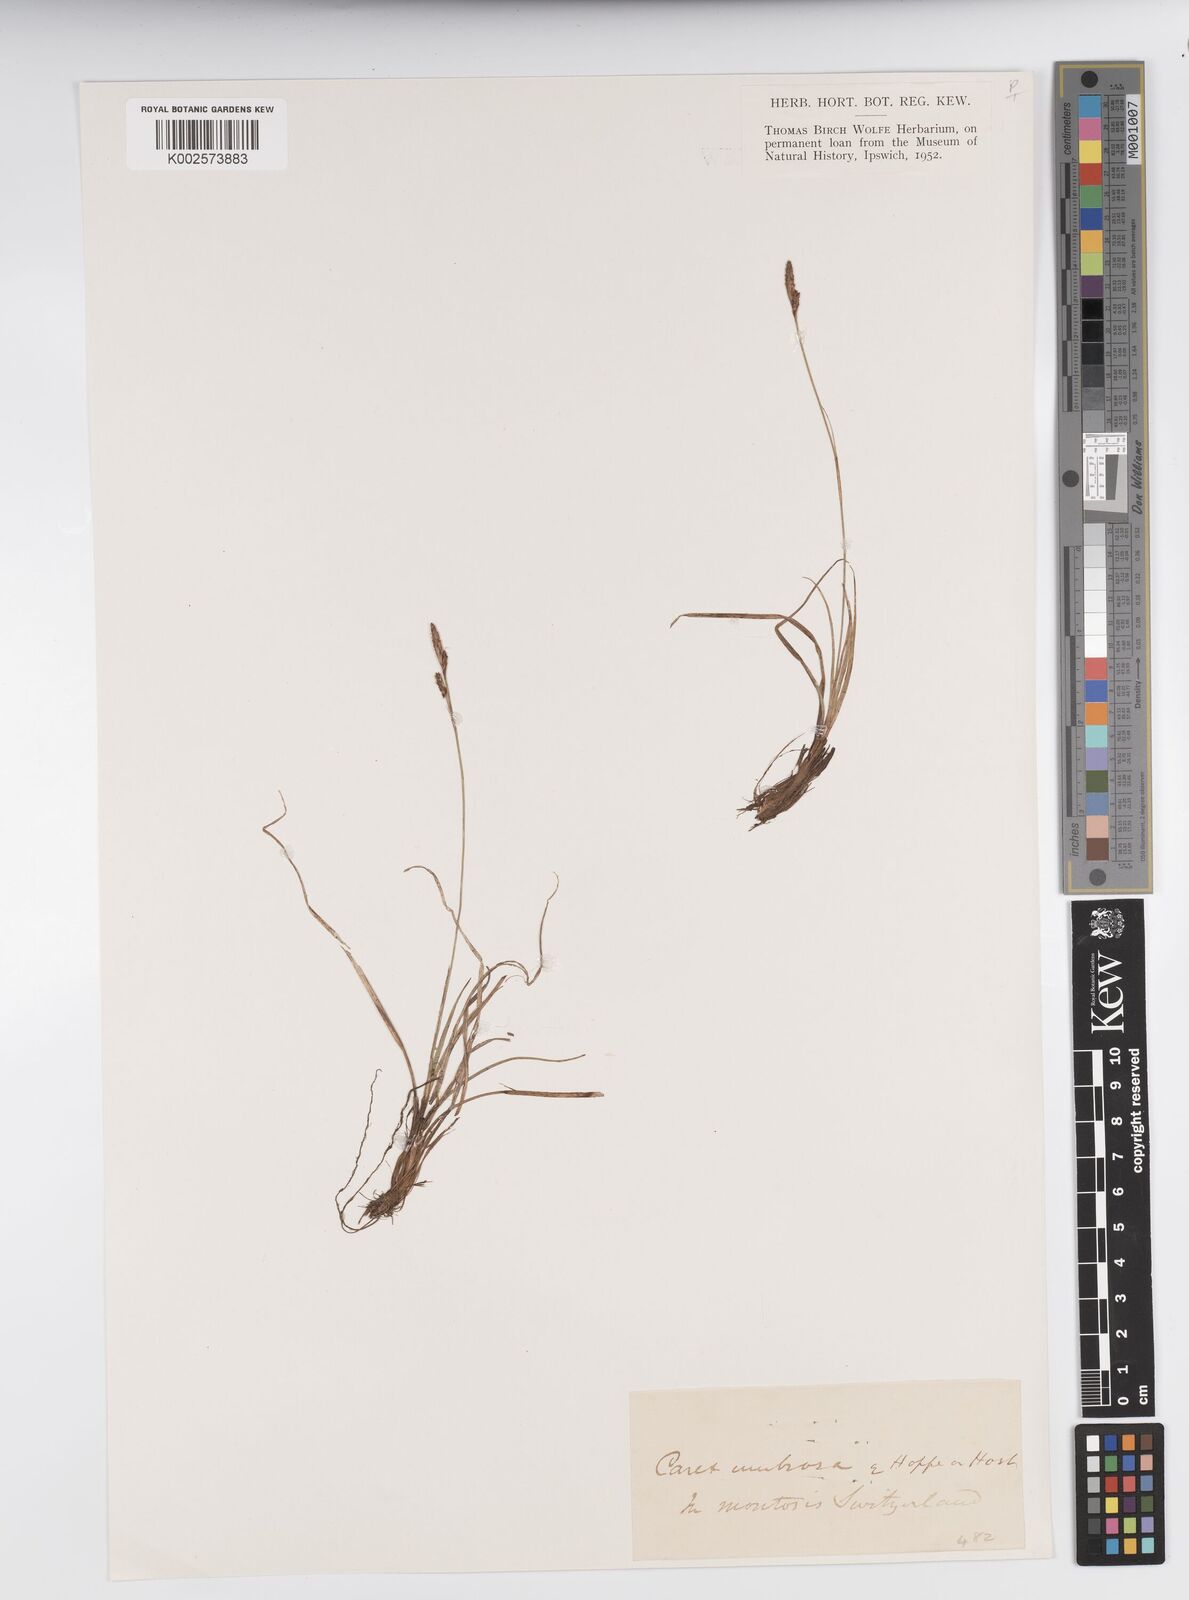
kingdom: Plantae
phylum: Tracheophyta
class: Liliopsida
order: Poales
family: Cyperaceae
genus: Carex
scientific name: Carex vaginata
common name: Sheathed sedge
